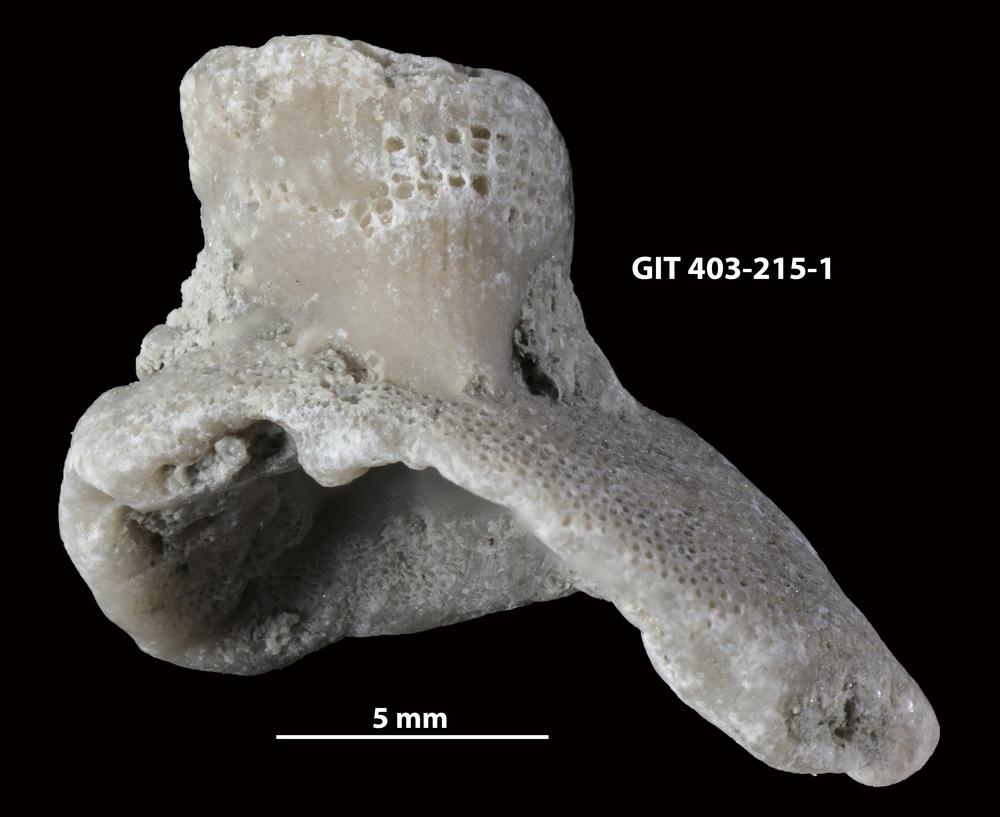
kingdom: Animalia
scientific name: Animalia
